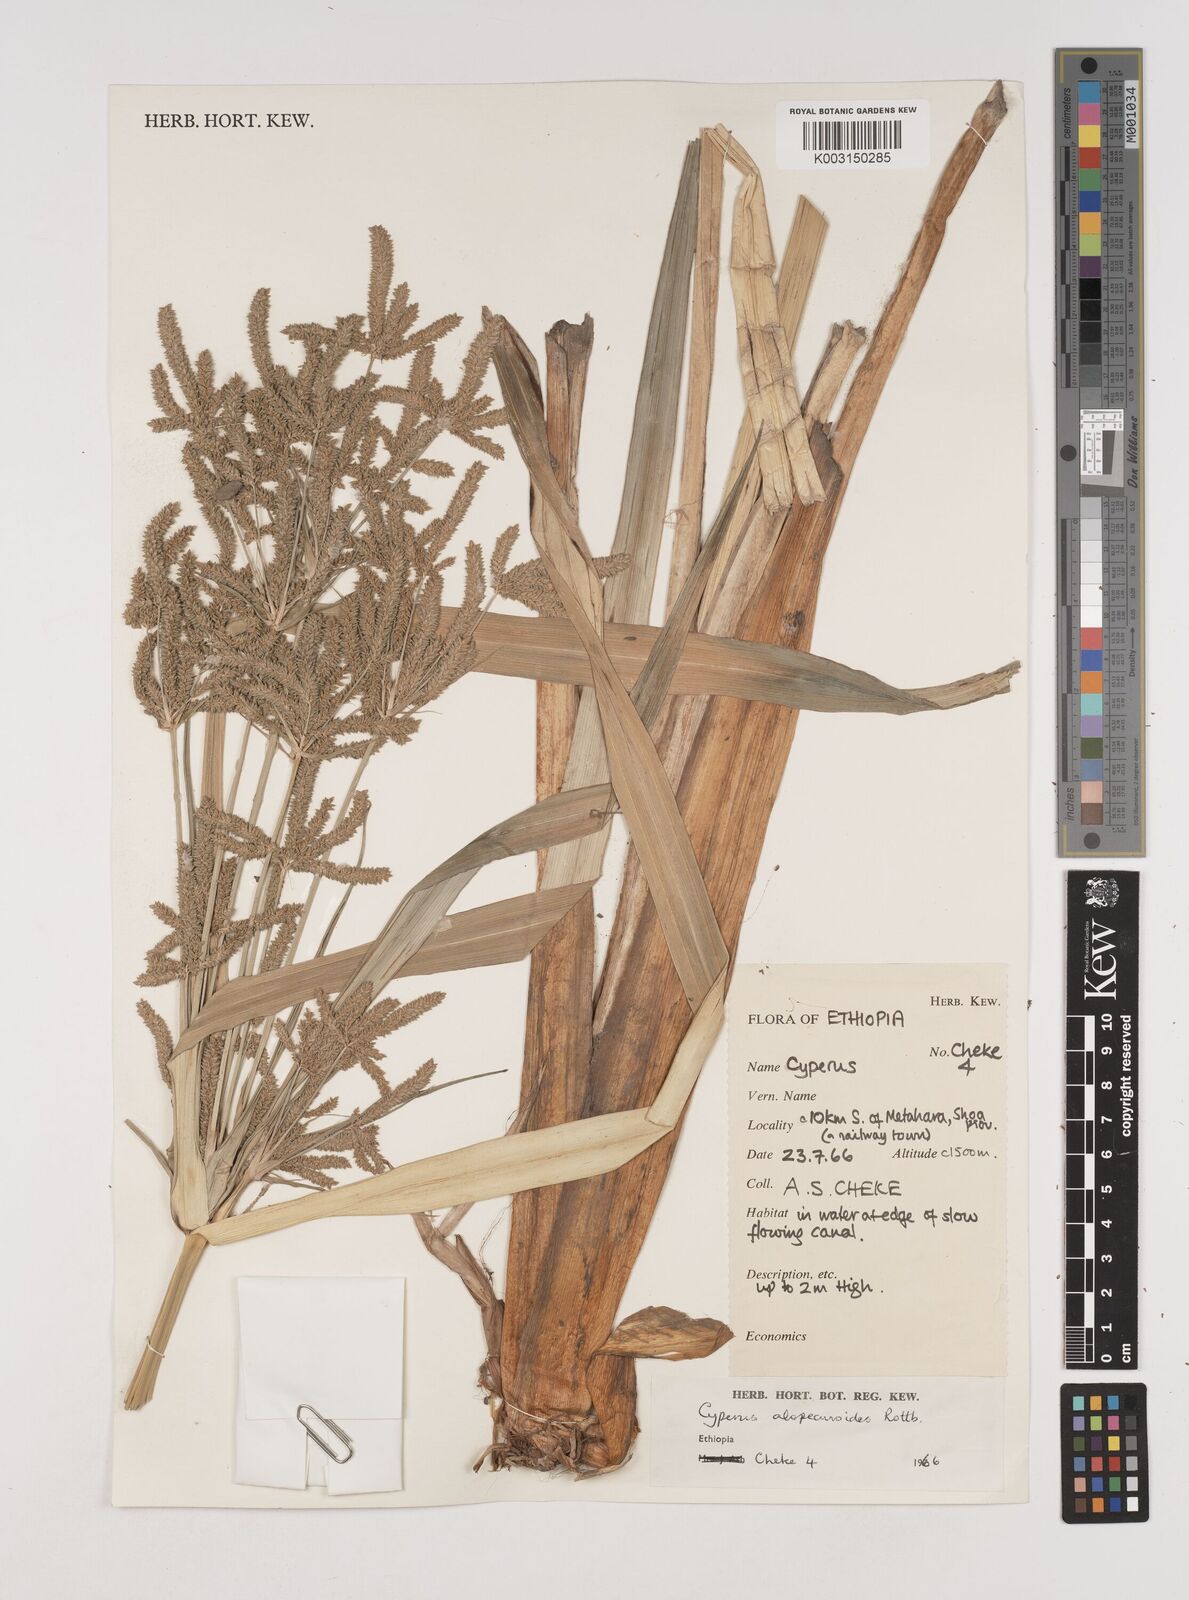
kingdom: Plantae
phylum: Tracheophyta
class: Liliopsida
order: Poales
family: Cyperaceae
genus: Cyperus
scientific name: Cyperus alopecuroides
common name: Foxtail flatsedge
